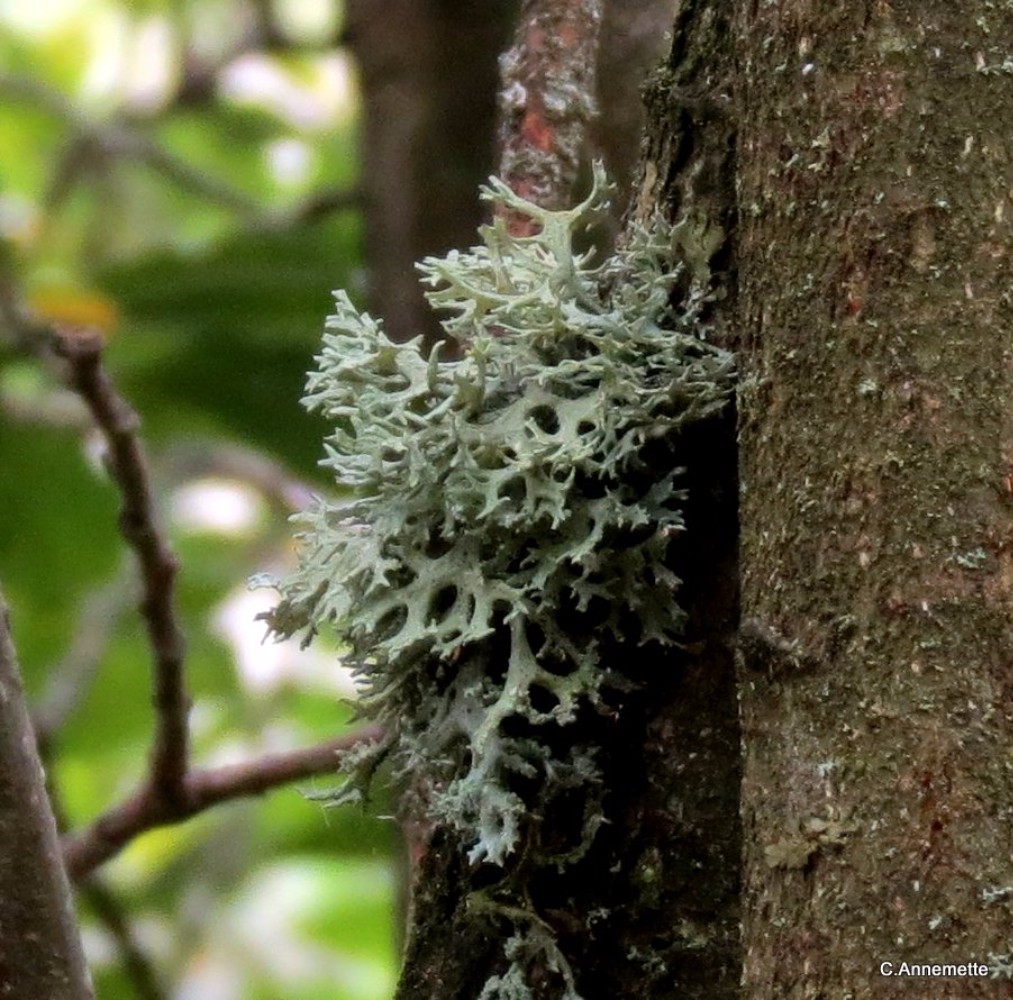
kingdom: Fungi
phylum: Ascomycota
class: Lecanoromycetes
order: Lecanorales
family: Parmeliaceae
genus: Evernia
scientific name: Evernia prunastri
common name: almindelig slåenlav
